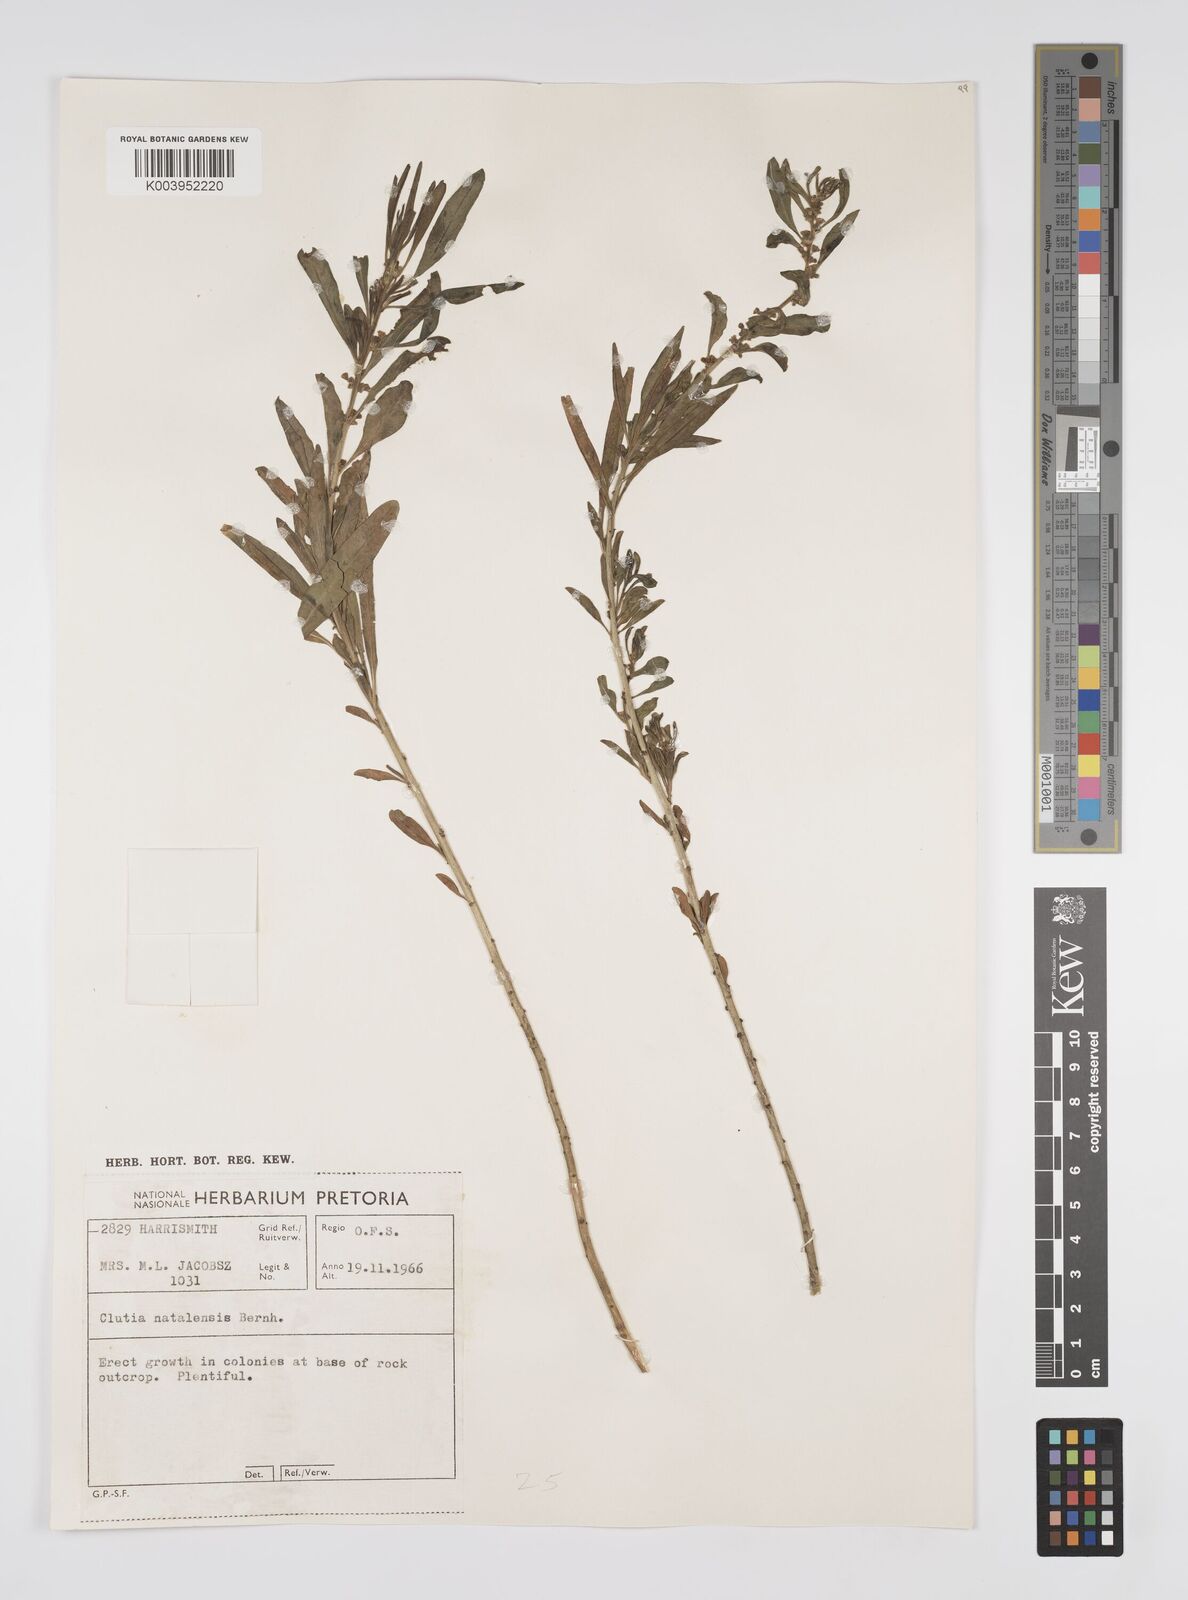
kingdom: Plantae
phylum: Tracheophyta
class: Magnoliopsida
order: Malpighiales
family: Peraceae
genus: Clutia
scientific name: Clutia natalensis
